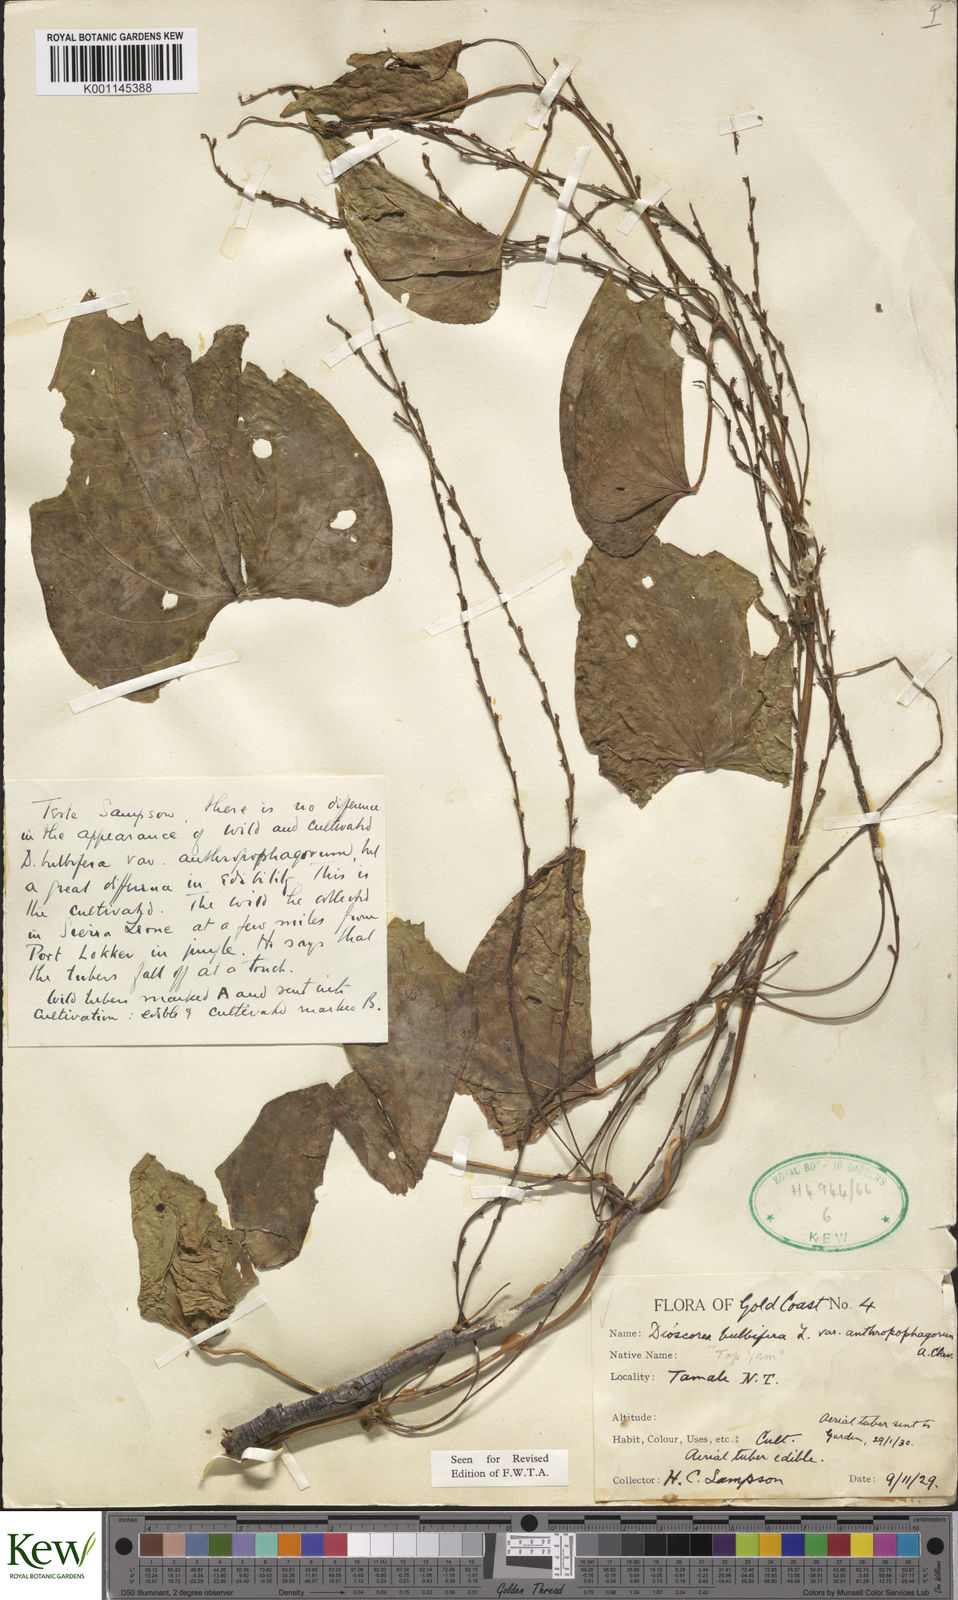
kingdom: Plantae
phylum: Tracheophyta
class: Liliopsida
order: Dioscoreales
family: Dioscoreaceae
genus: Dioscorea
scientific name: Dioscorea bulbifera
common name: Air yam
